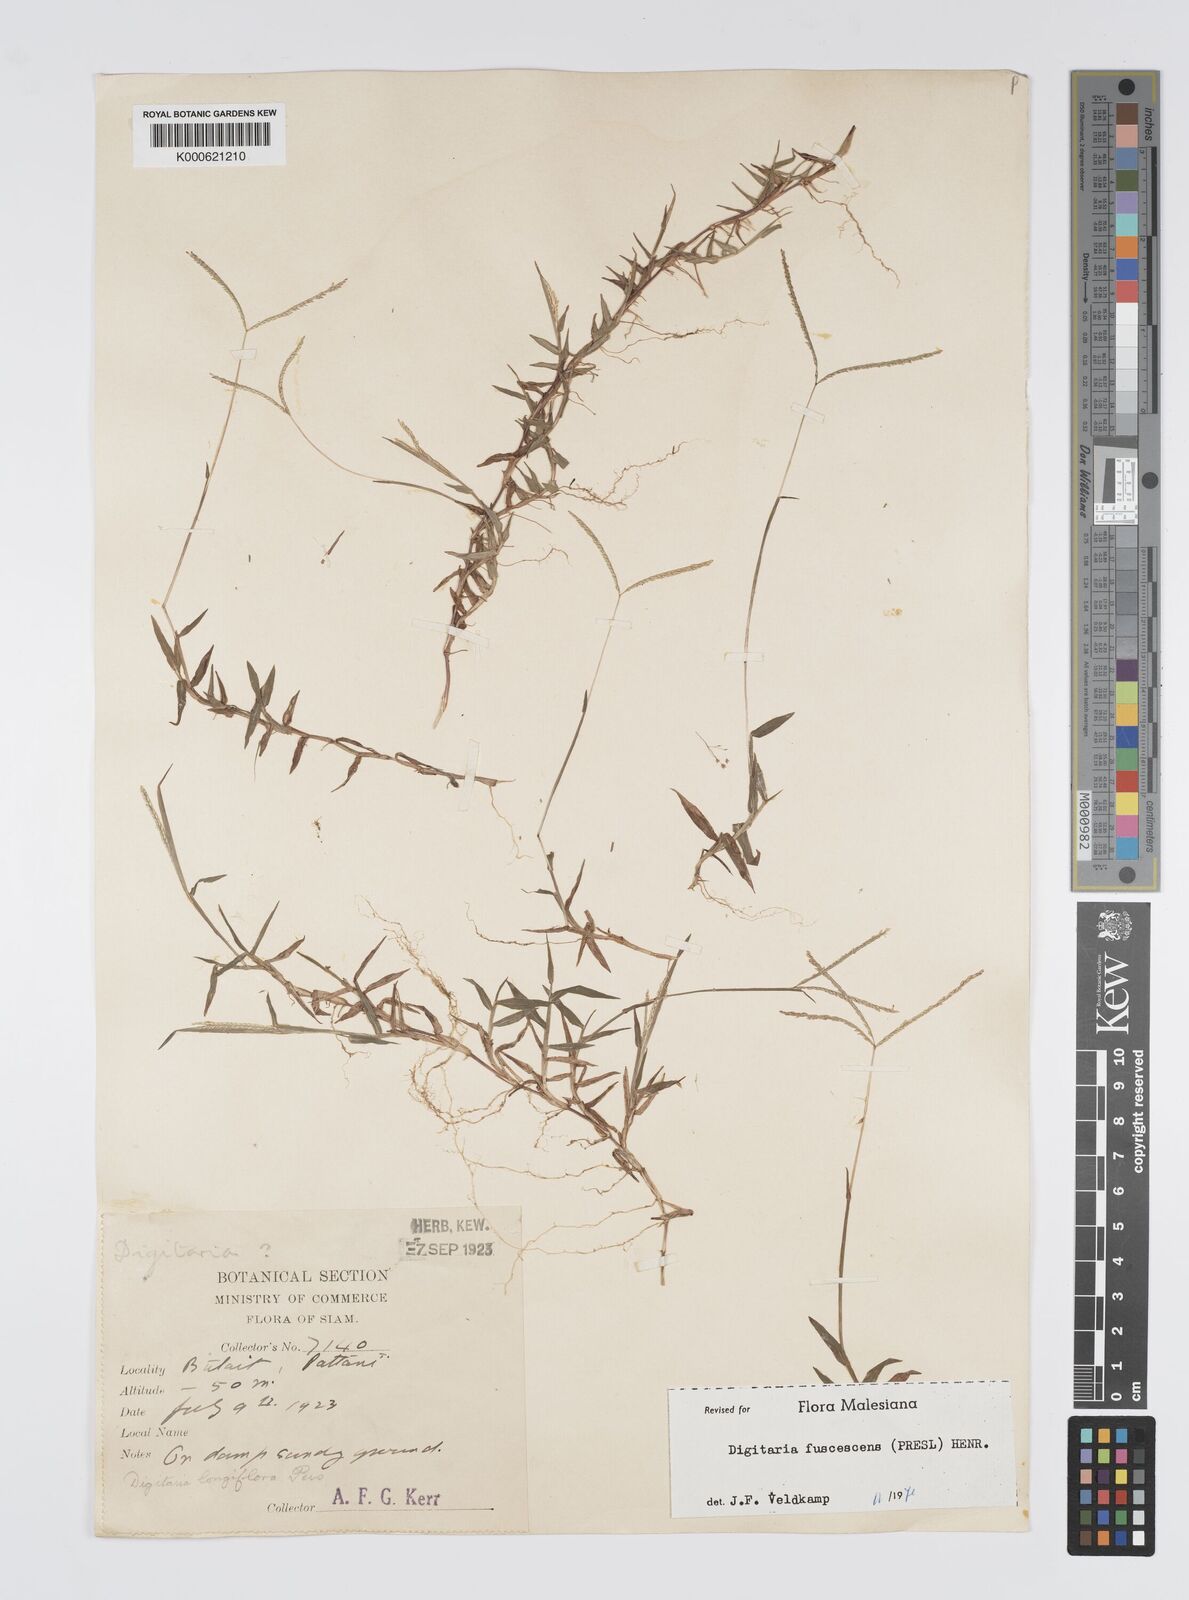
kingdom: Plantae
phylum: Tracheophyta
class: Liliopsida
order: Poales
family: Poaceae
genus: Digitaria
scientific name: Digitaria fuscescens
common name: Yellow crabgrass
